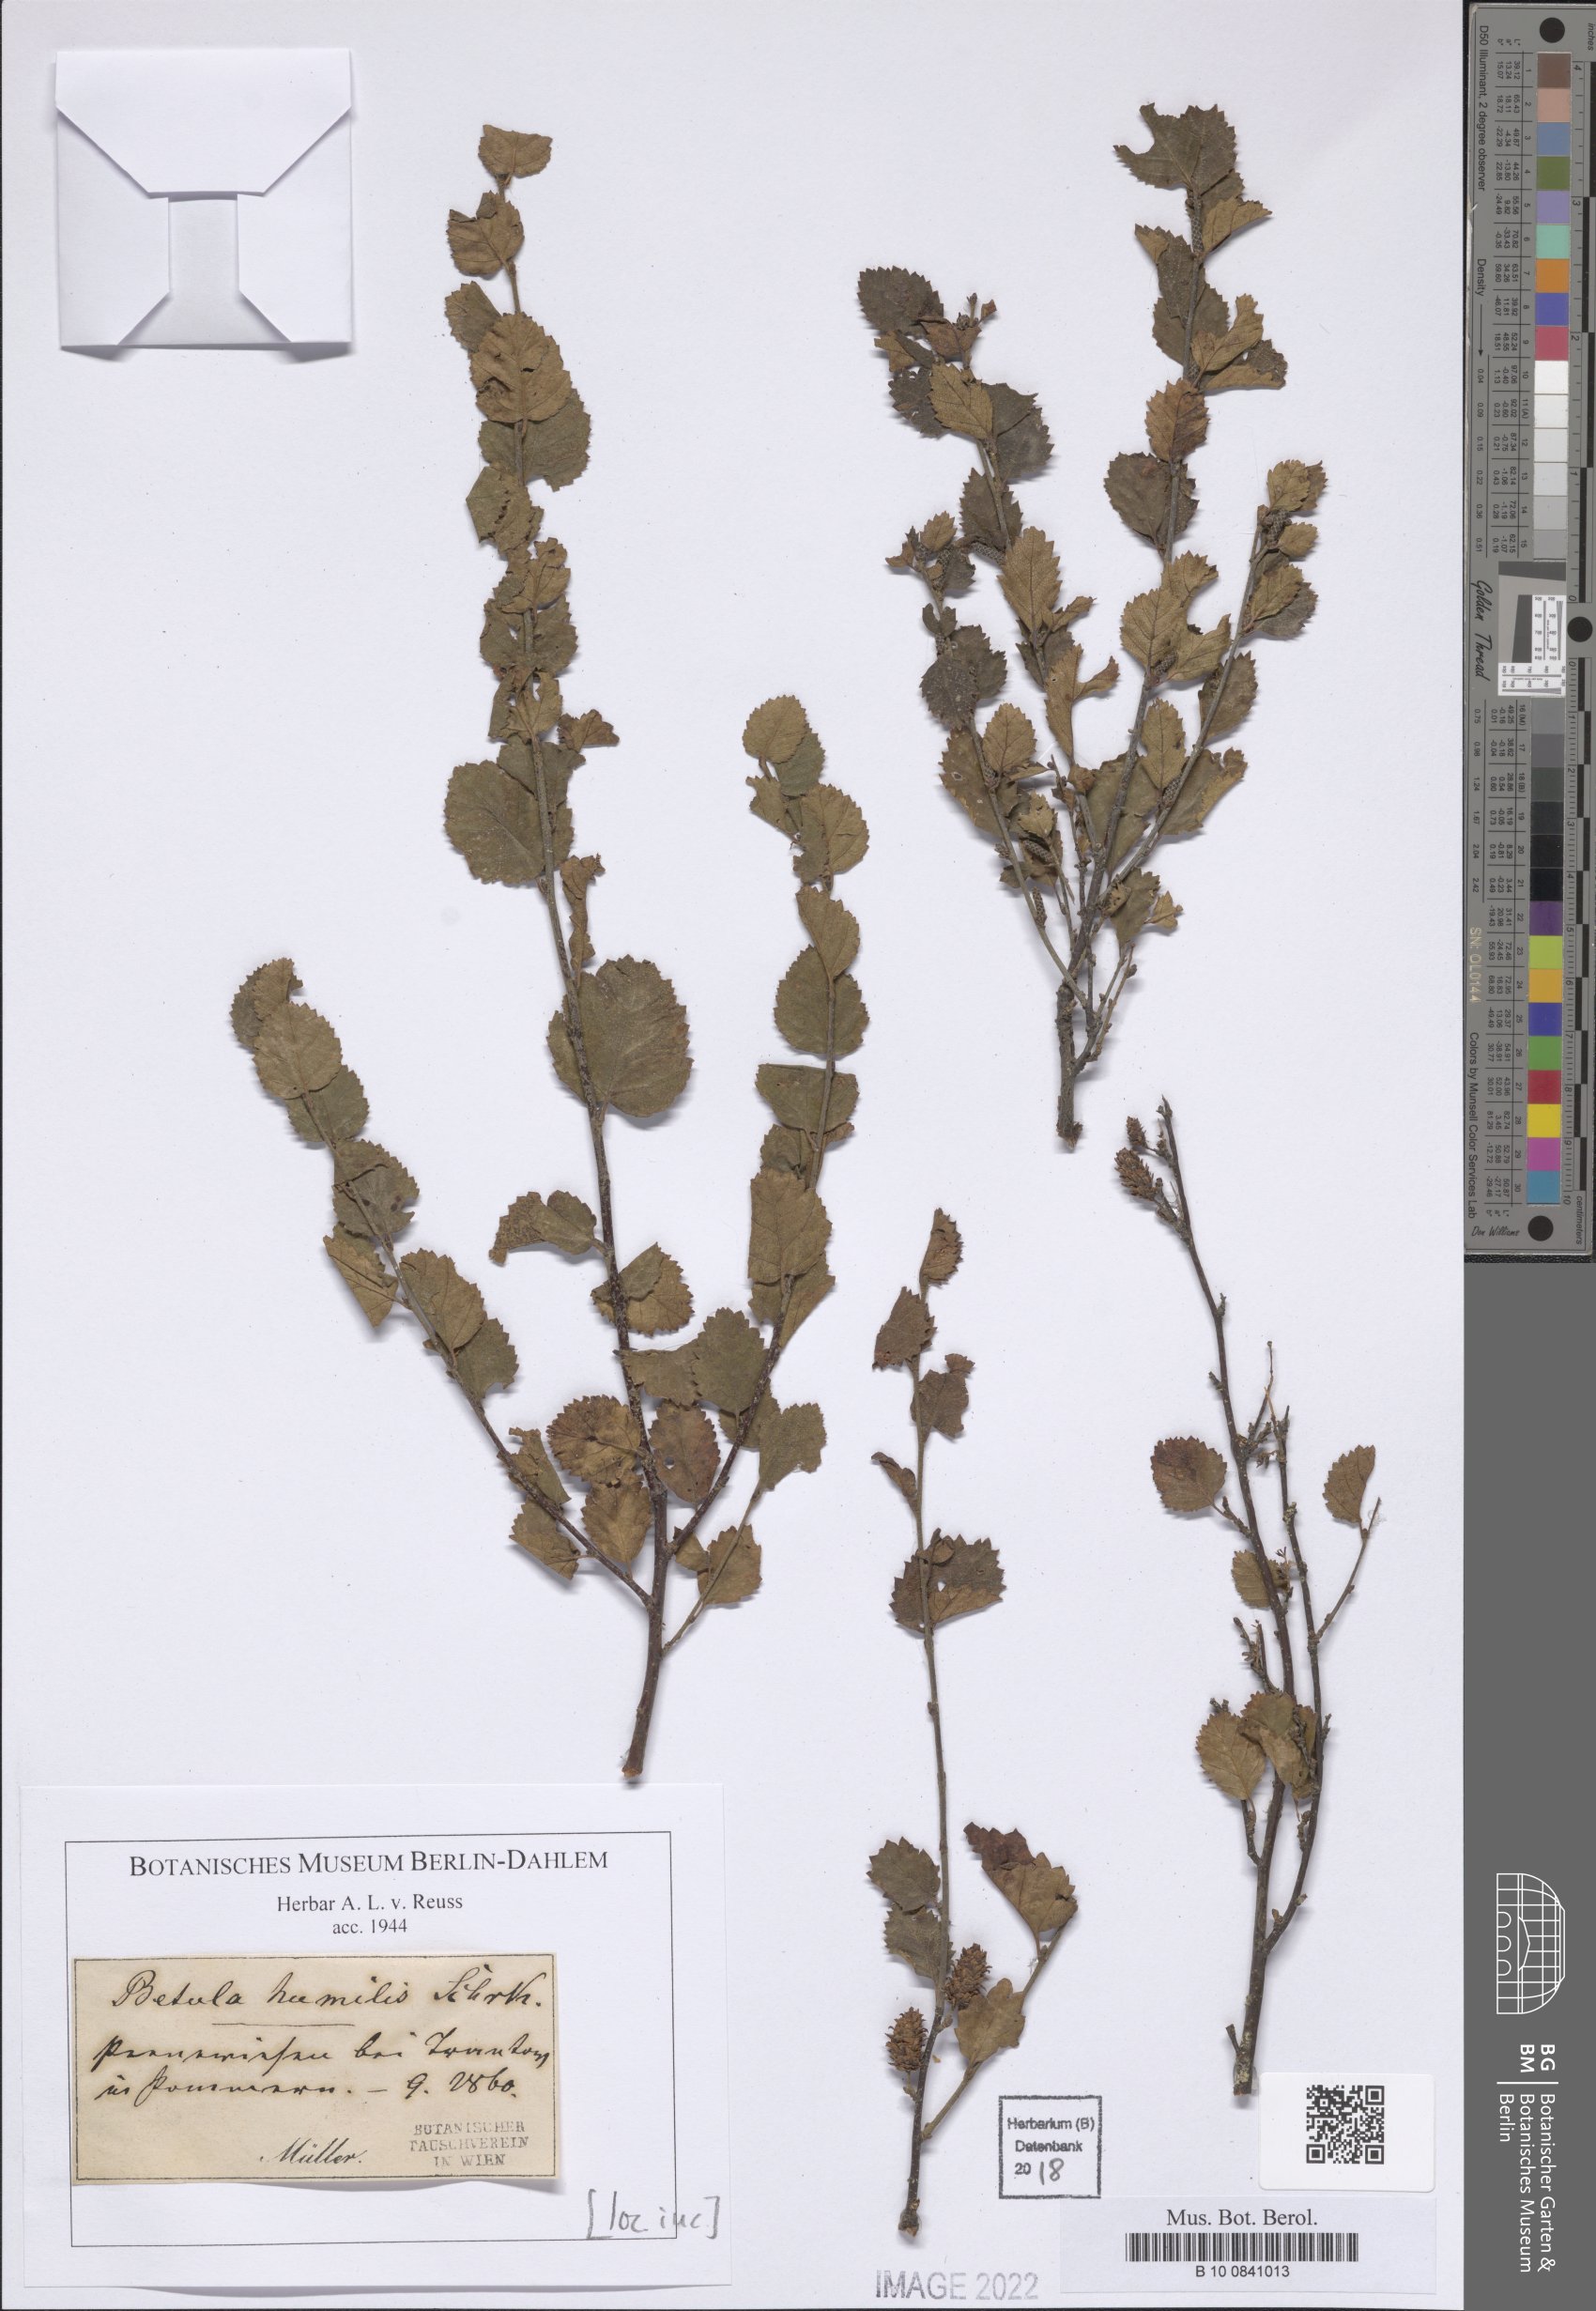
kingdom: Plantae
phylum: Tracheophyta
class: Magnoliopsida
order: Fagales
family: Betulaceae
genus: Betula
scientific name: Betula humilis
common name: Shrubby birch
